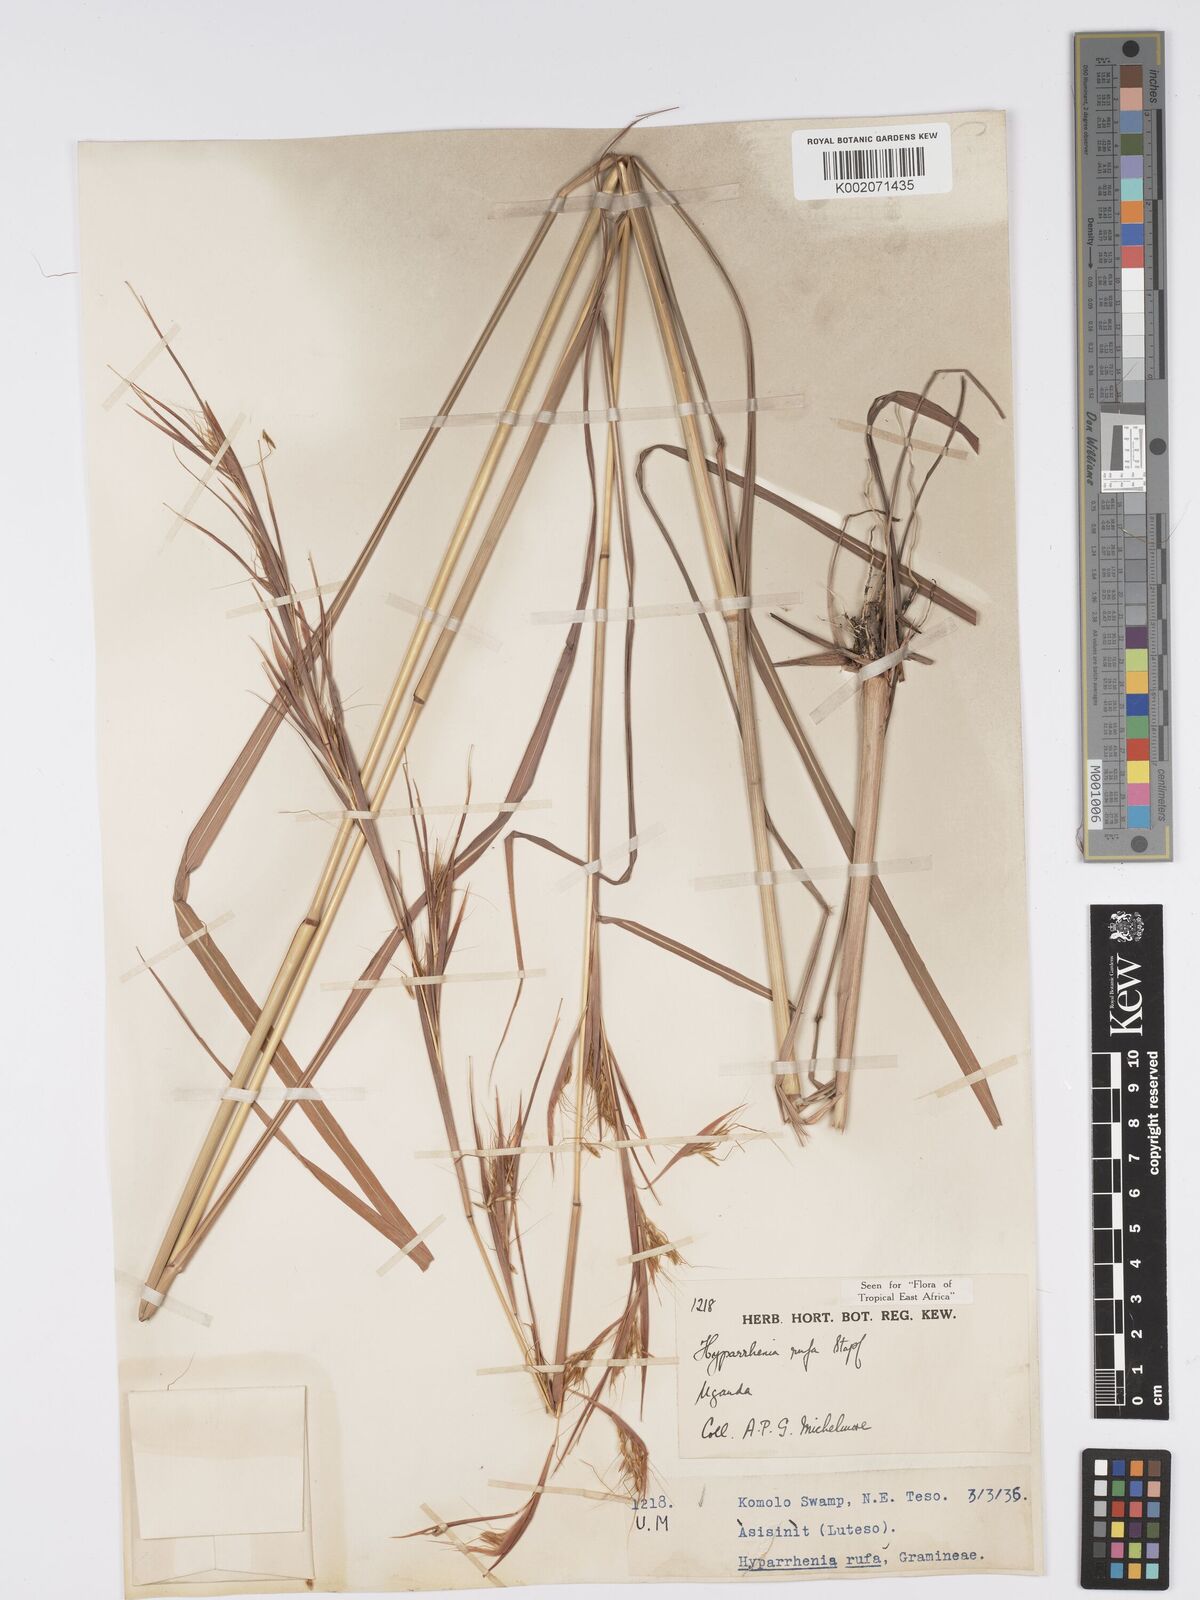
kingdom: Plantae
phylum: Tracheophyta
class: Liliopsida
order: Poales
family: Poaceae
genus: Hyparrhenia
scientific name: Hyparrhenia rufa
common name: Jaraguagrass
